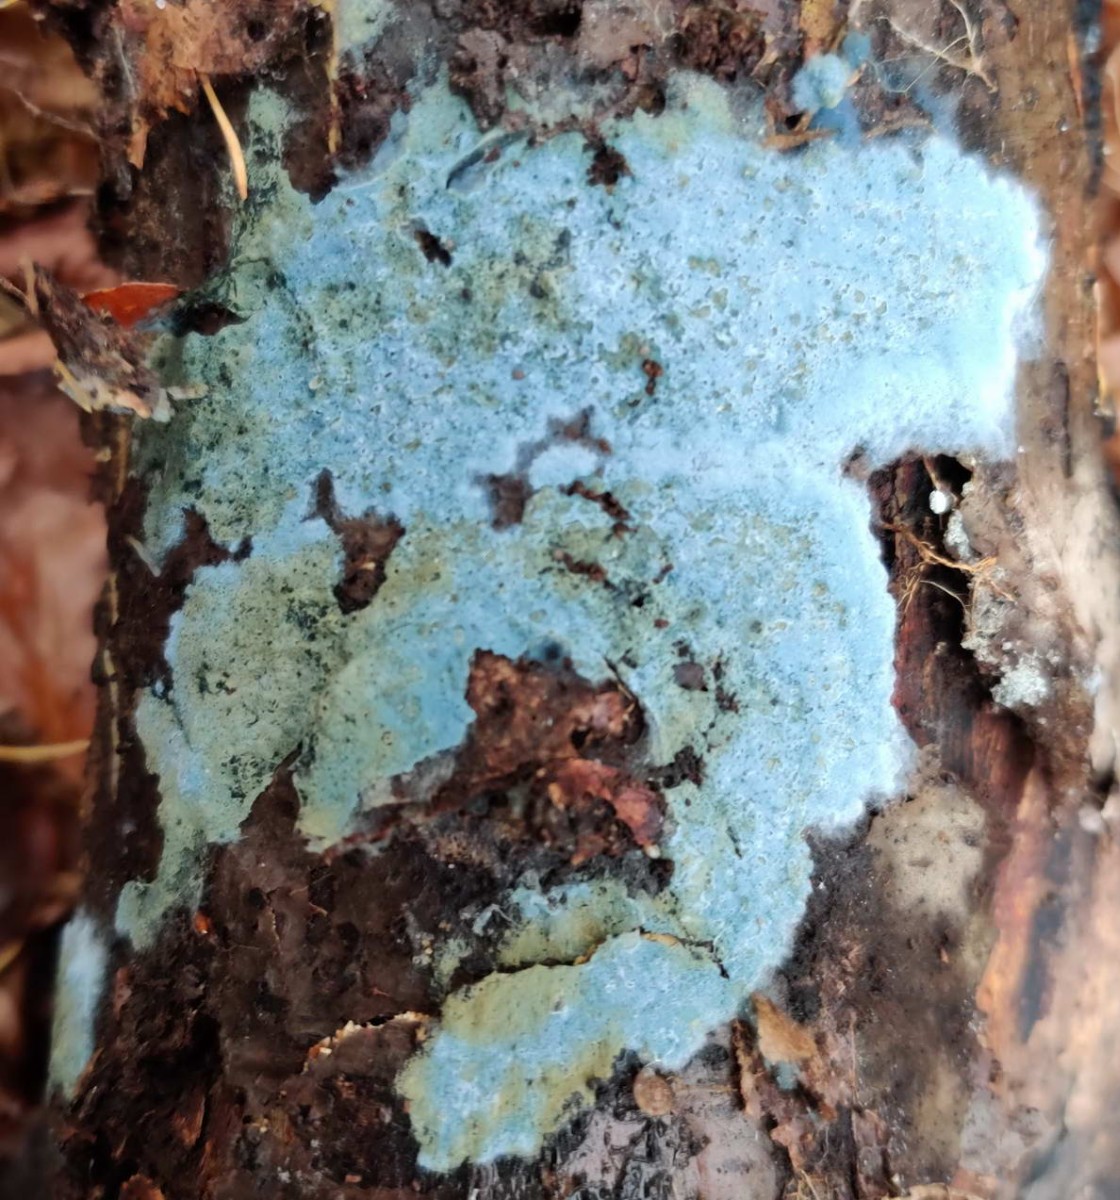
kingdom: Fungi
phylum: Basidiomycota
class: Agaricomycetes
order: Atheliales
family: Atheliaceae
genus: Byssocorticium
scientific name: Byssocorticium atrovirens
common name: blå førnehinde
